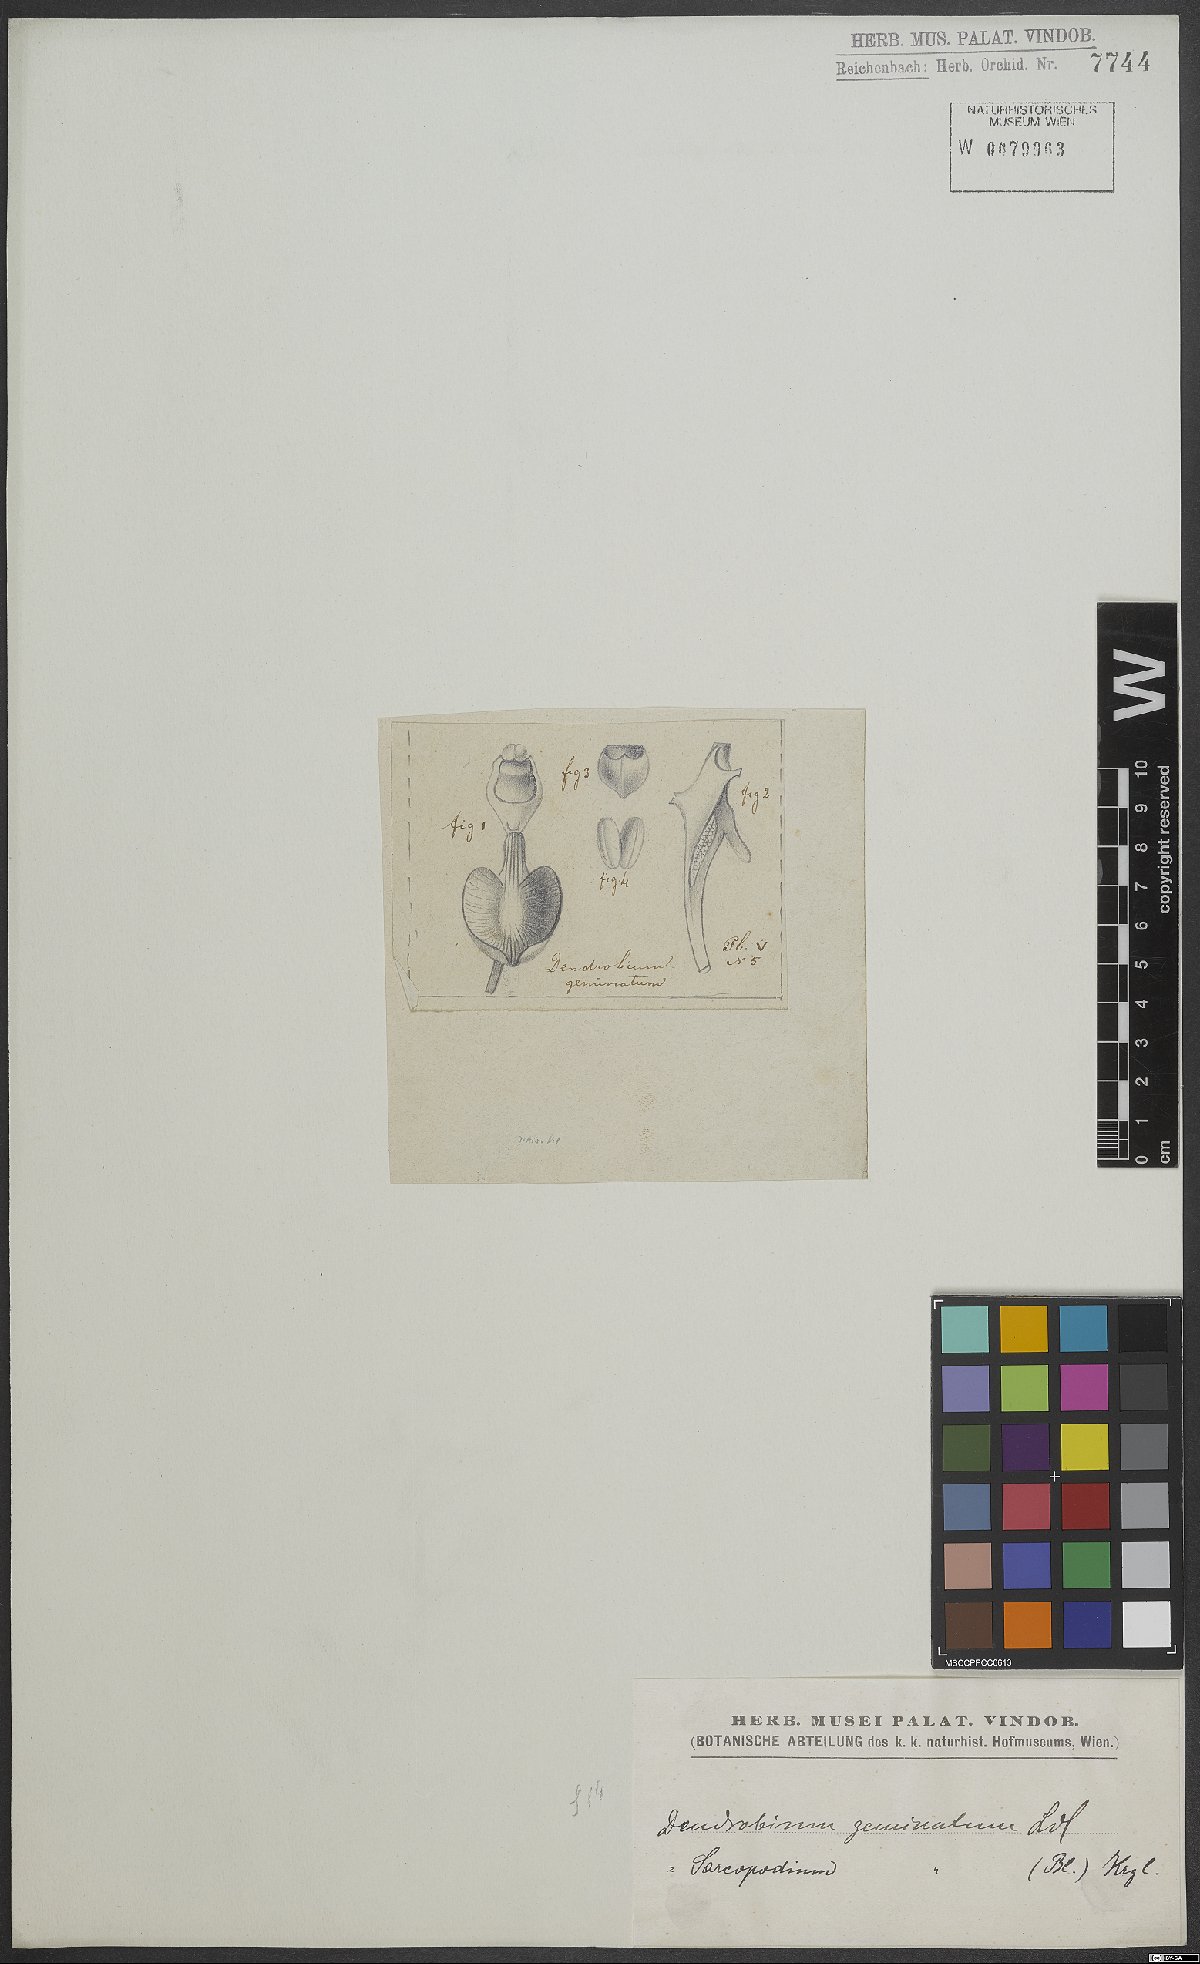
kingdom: Plantae
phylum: Tracheophyta
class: Liliopsida
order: Asparagales
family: Orchidaceae
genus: Dendrobium
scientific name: Dendrobium geminatum
